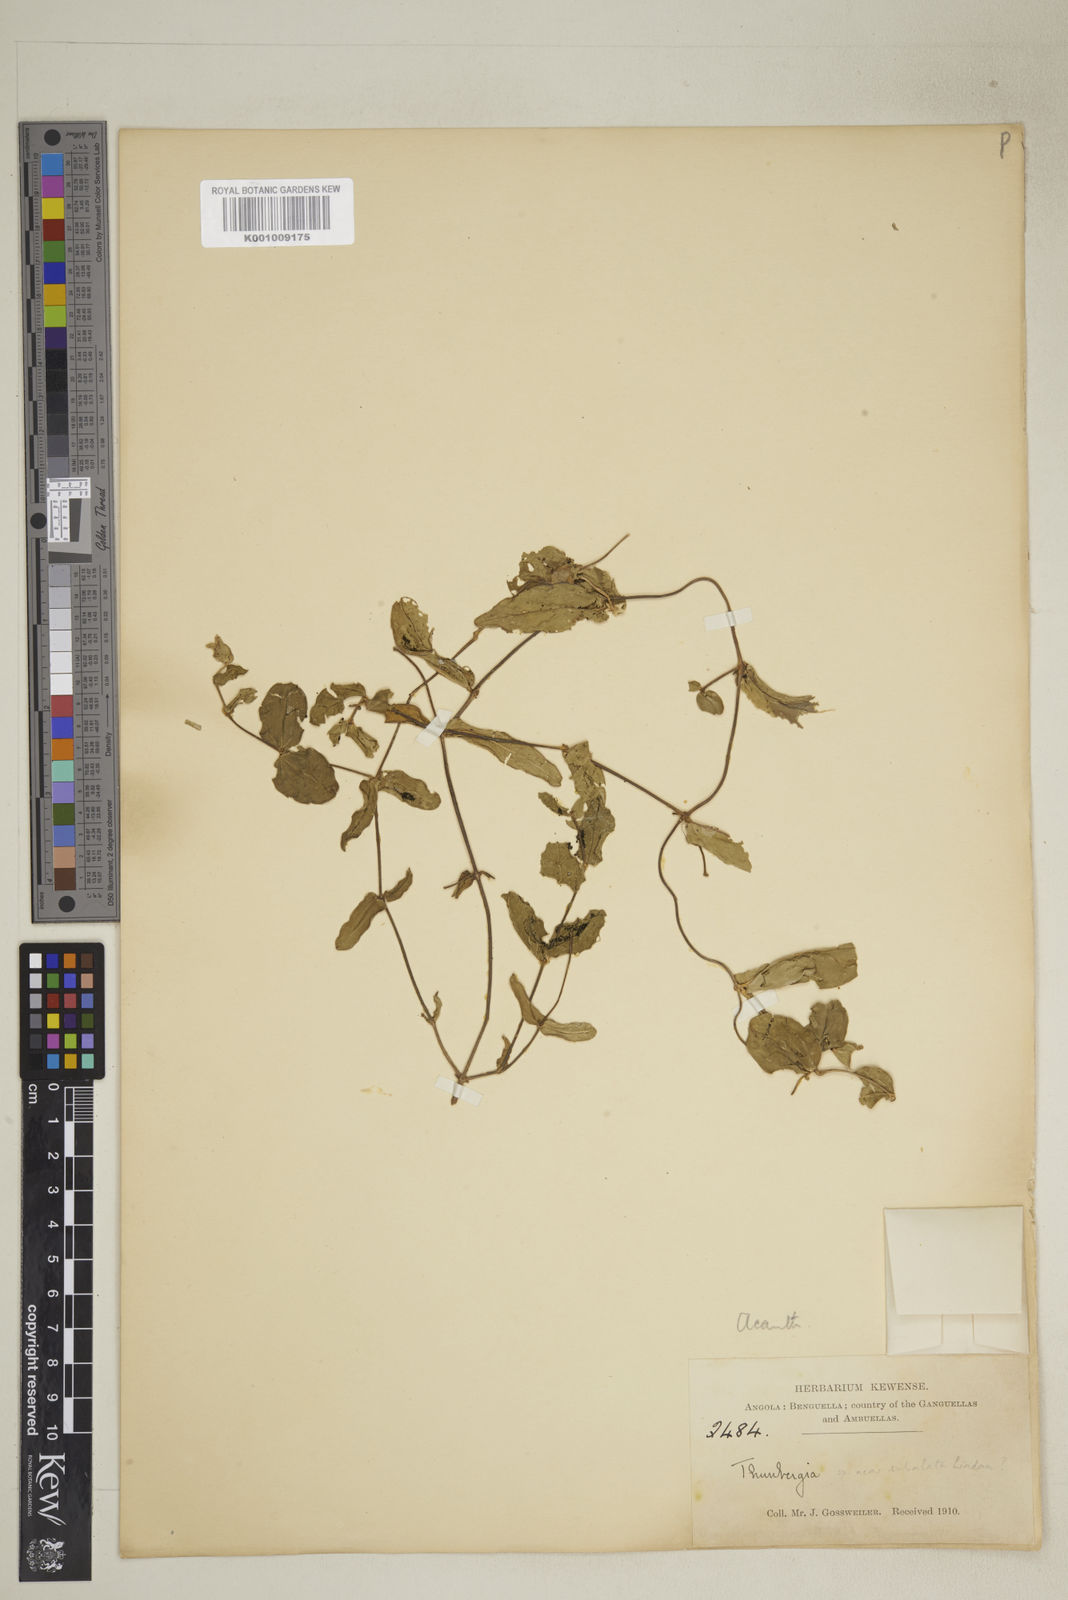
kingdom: Plantae
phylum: Tracheophyta
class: Magnoliopsida
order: Lamiales
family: Acanthaceae
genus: Thunbergia
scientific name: Thunbergia gossweileri
